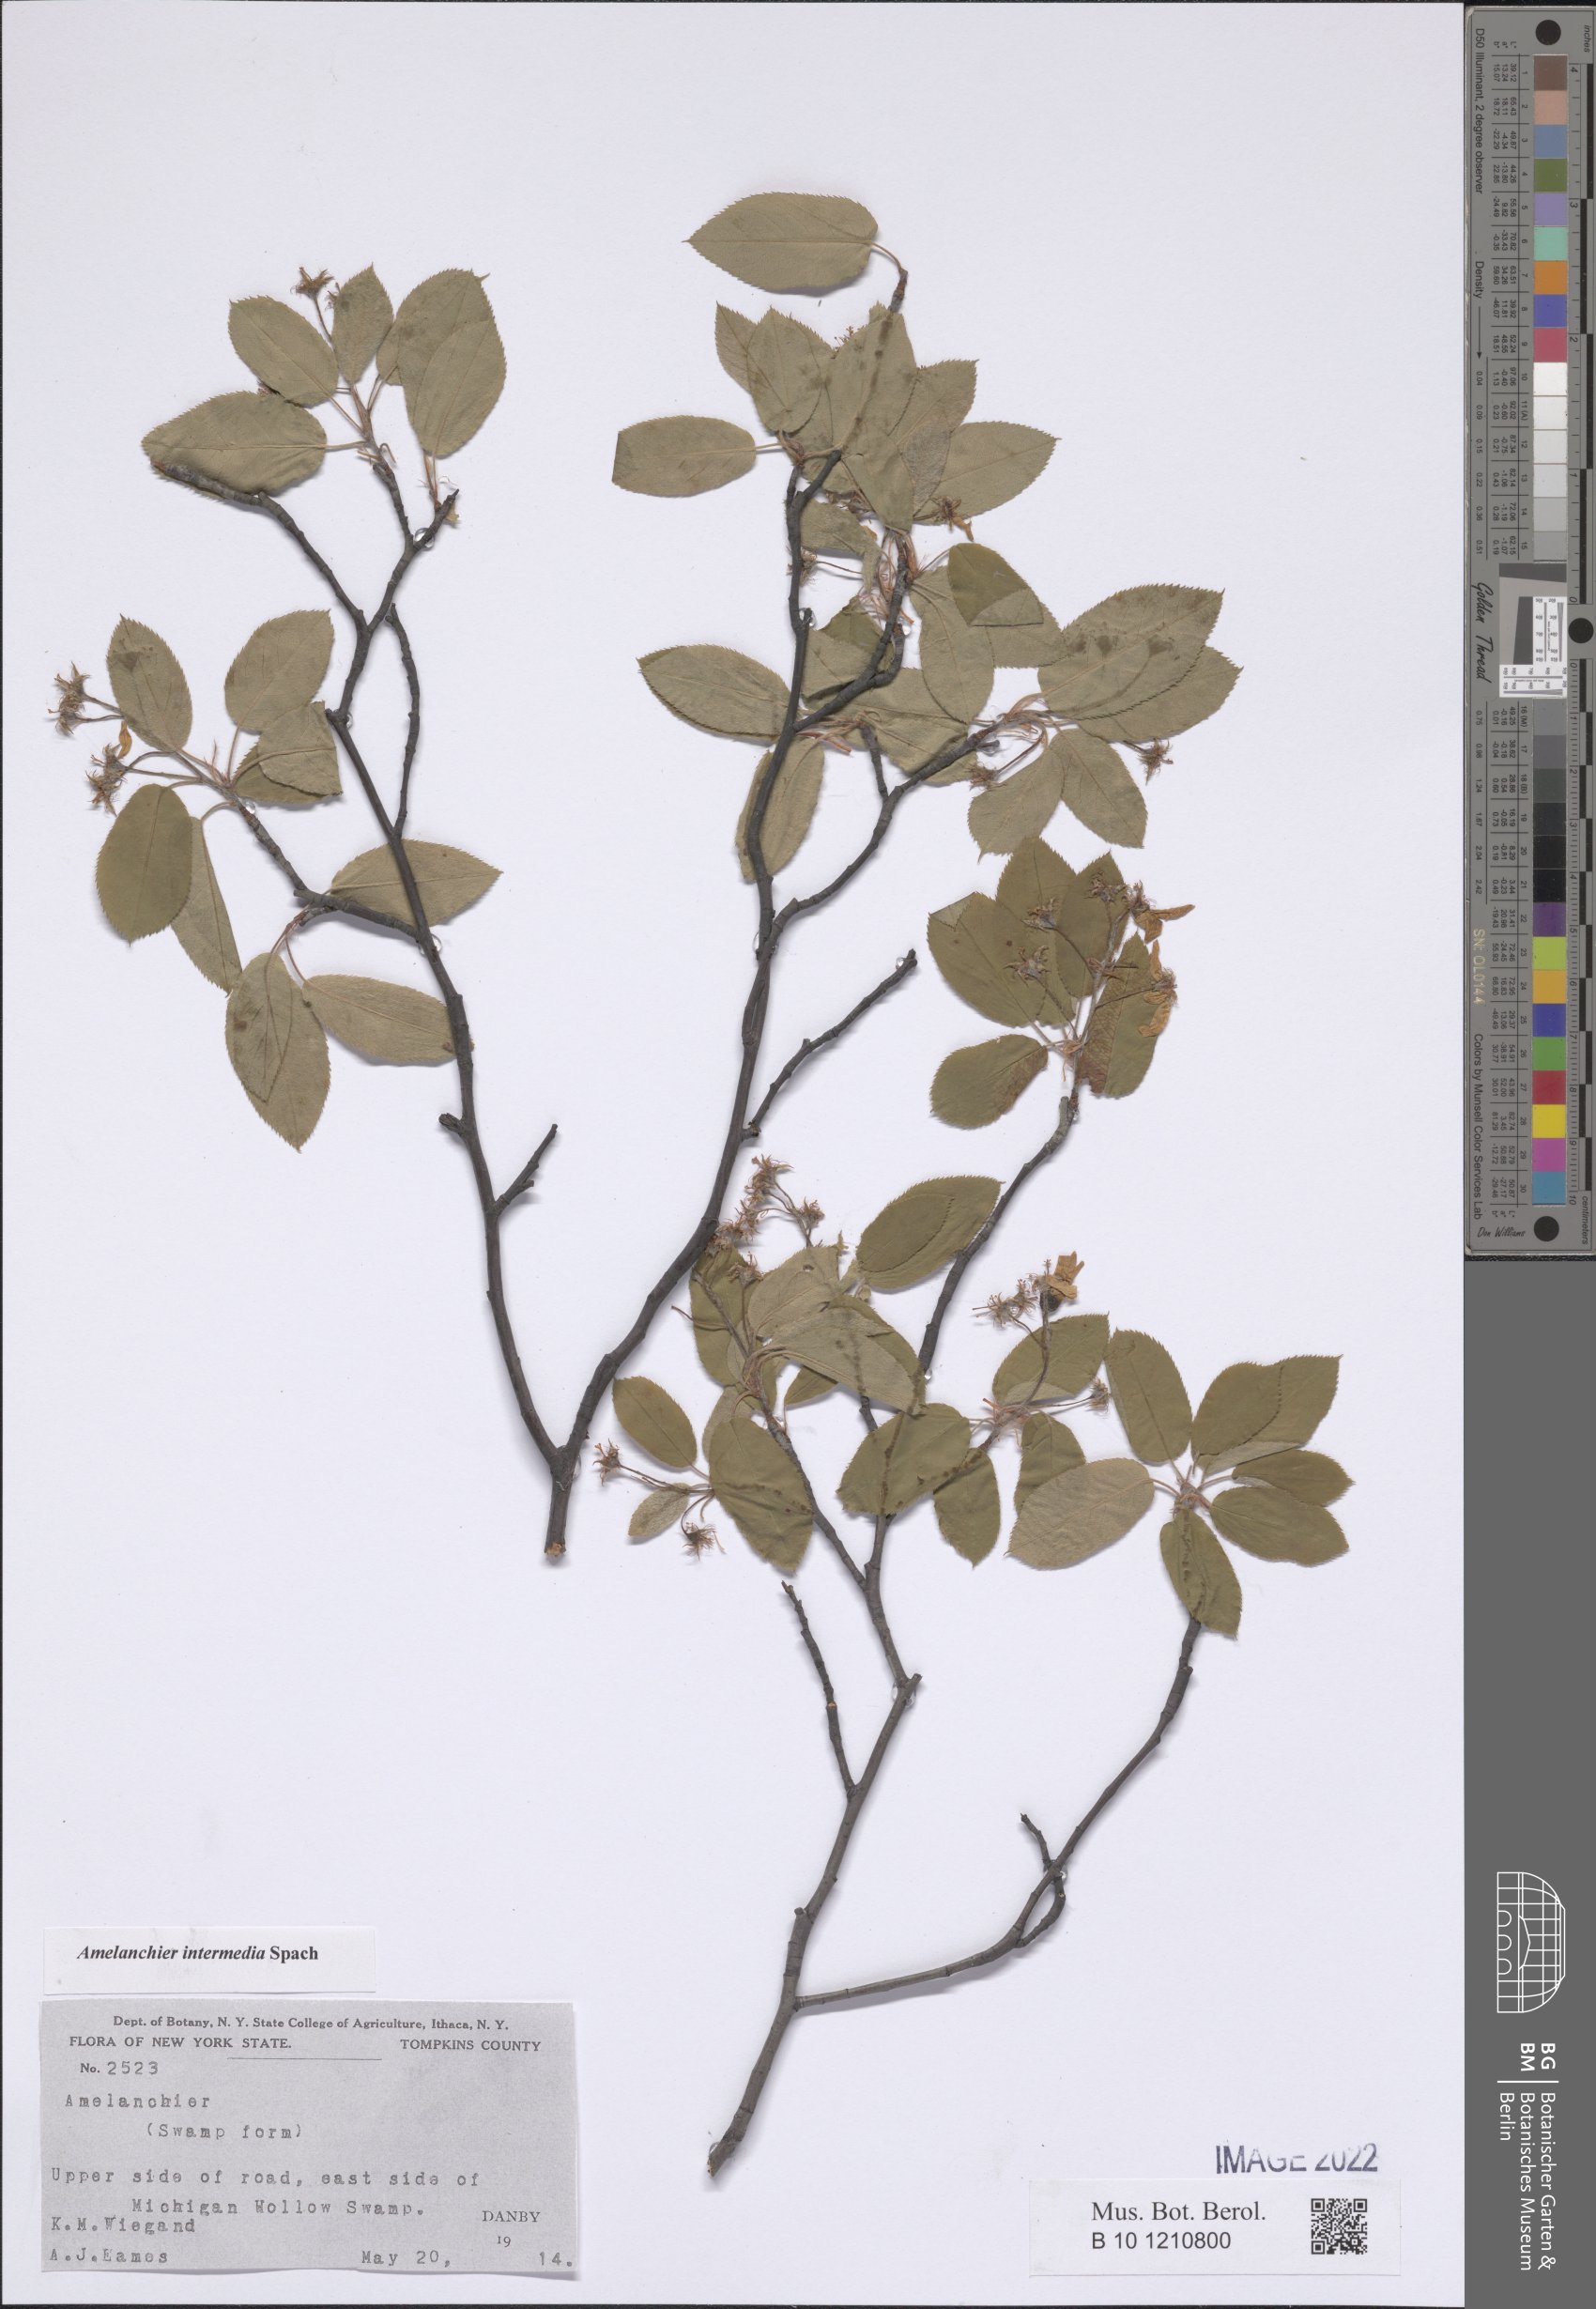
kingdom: Plantae
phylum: Tracheophyta
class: Magnoliopsida
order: Rosales
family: Rosaceae
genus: Amelanchier
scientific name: Amelanchier intermedia
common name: Intermediate shadbush
